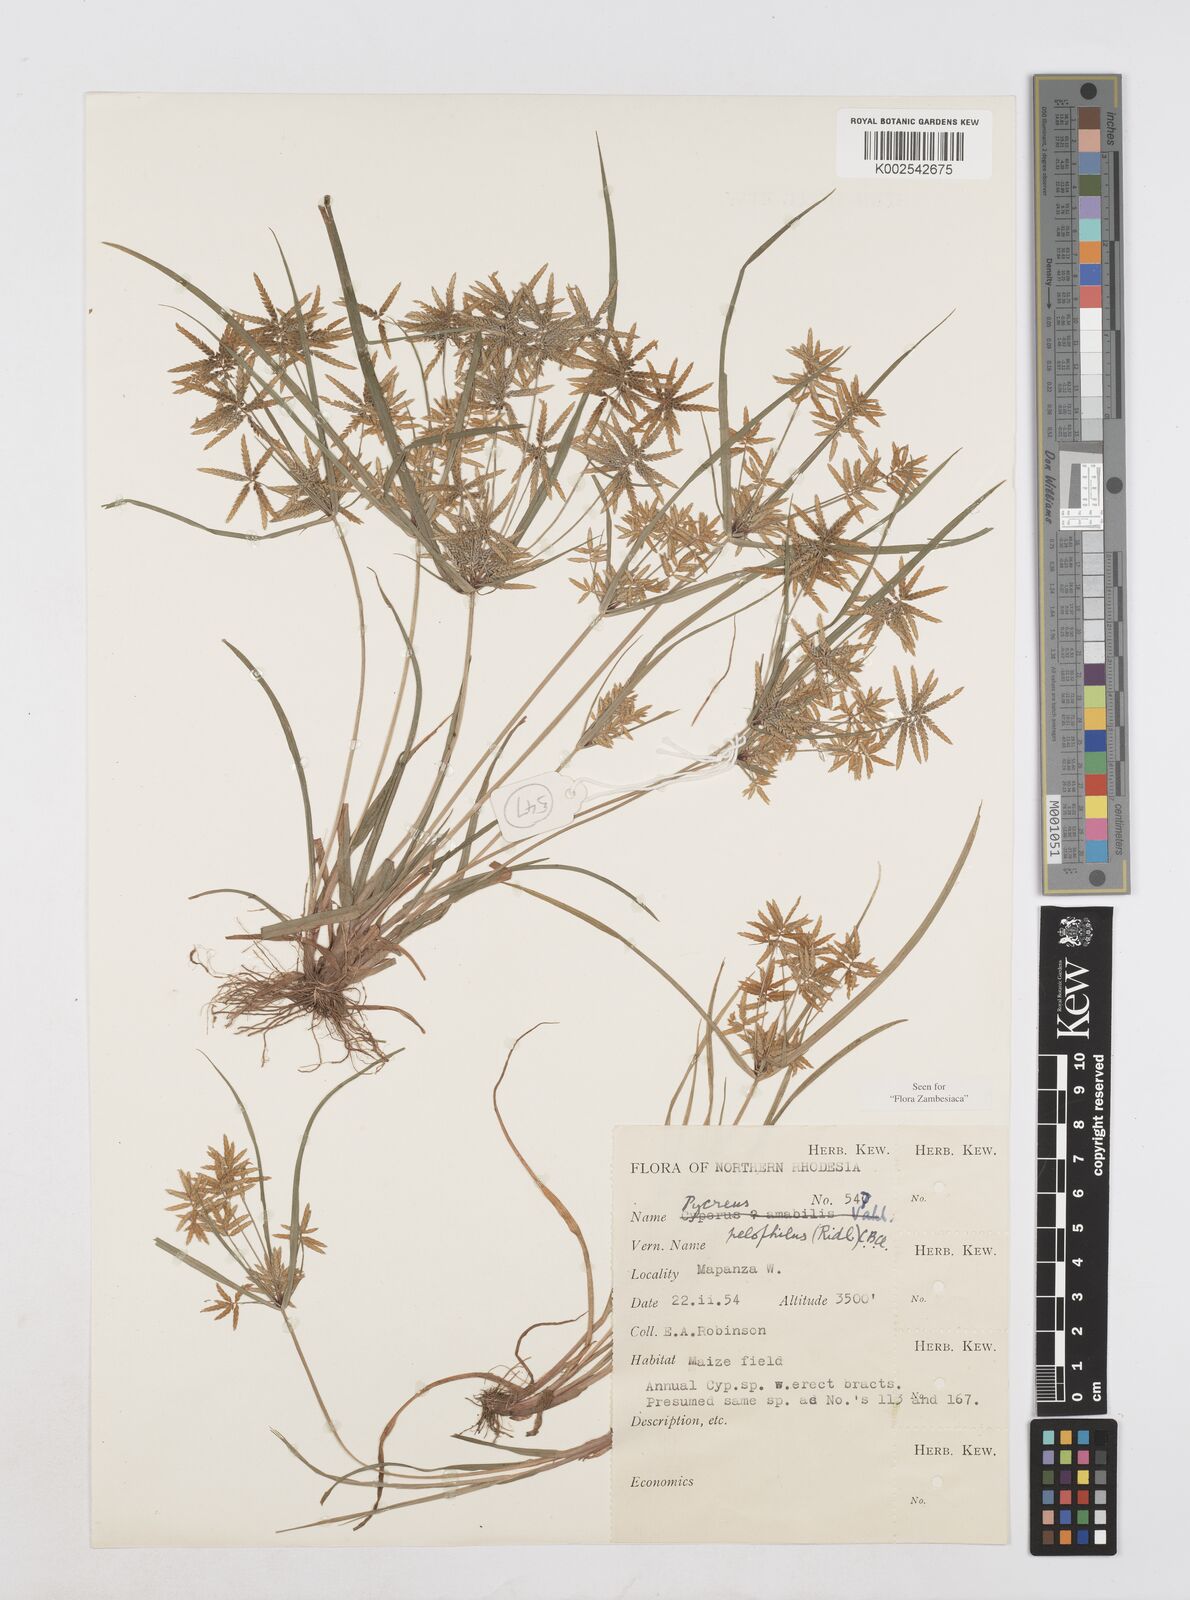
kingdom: Plantae
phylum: Tracheophyta
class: Liliopsida
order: Poales
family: Cyperaceae
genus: Cyperus
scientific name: Cyperus pelophilus
